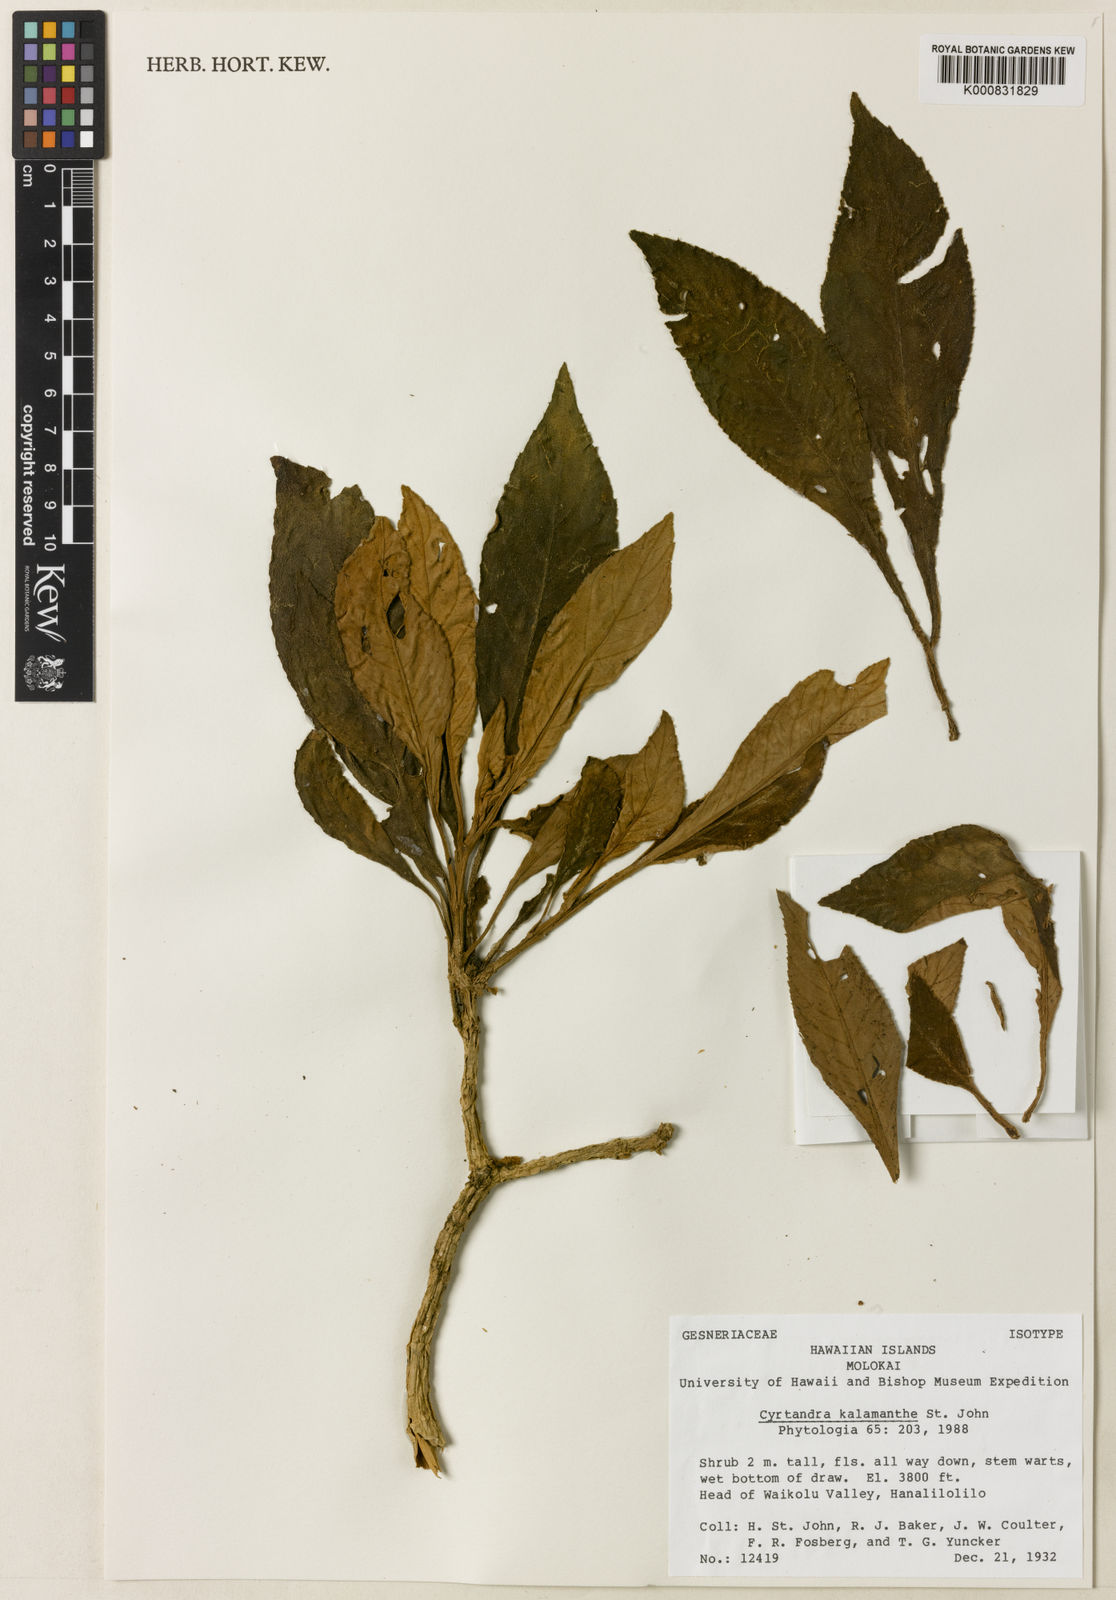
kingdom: Plantae
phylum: Tracheophyta
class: Magnoliopsida
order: Lamiales
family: Gesneriaceae
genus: Cyrtandra
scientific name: Cyrtandra grayana
